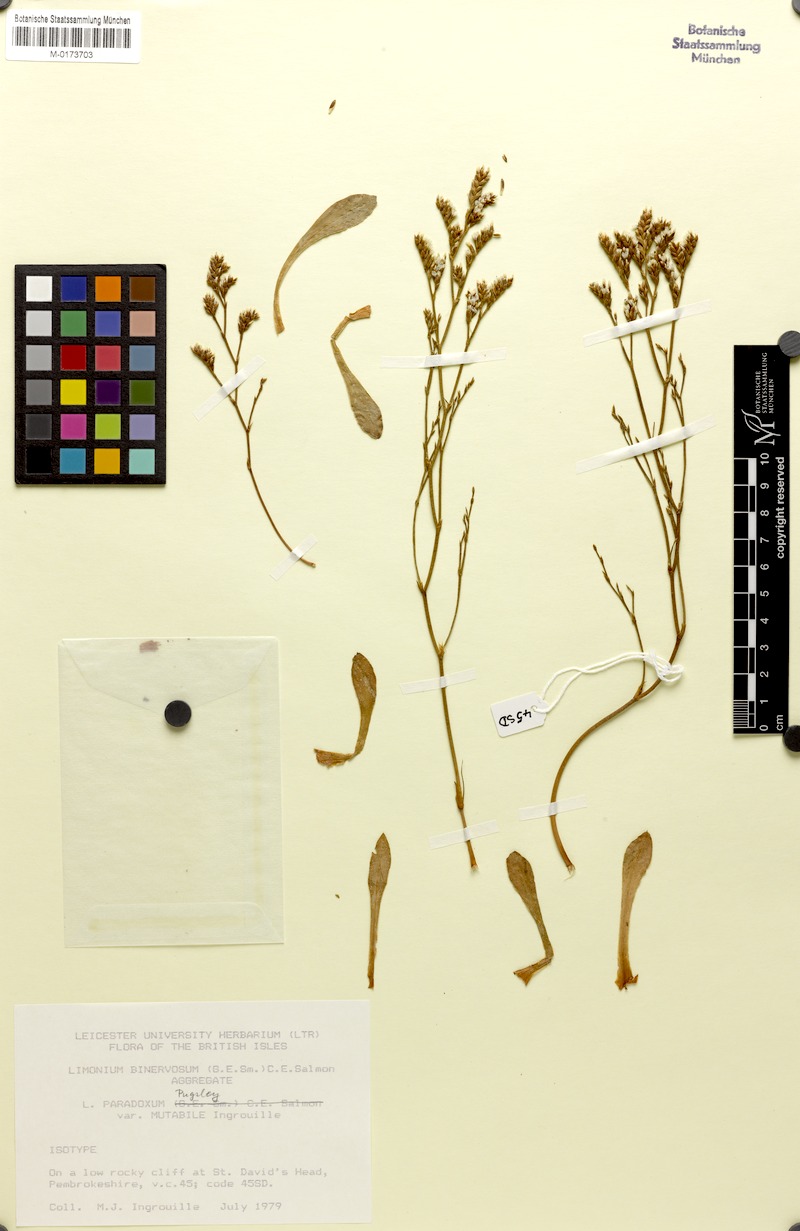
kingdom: Plantae
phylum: Tracheophyta
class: Magnoliopsida
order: Caryophyllales
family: Plumbaginaceae
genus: Limonium
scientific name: Limonium paradoxum
